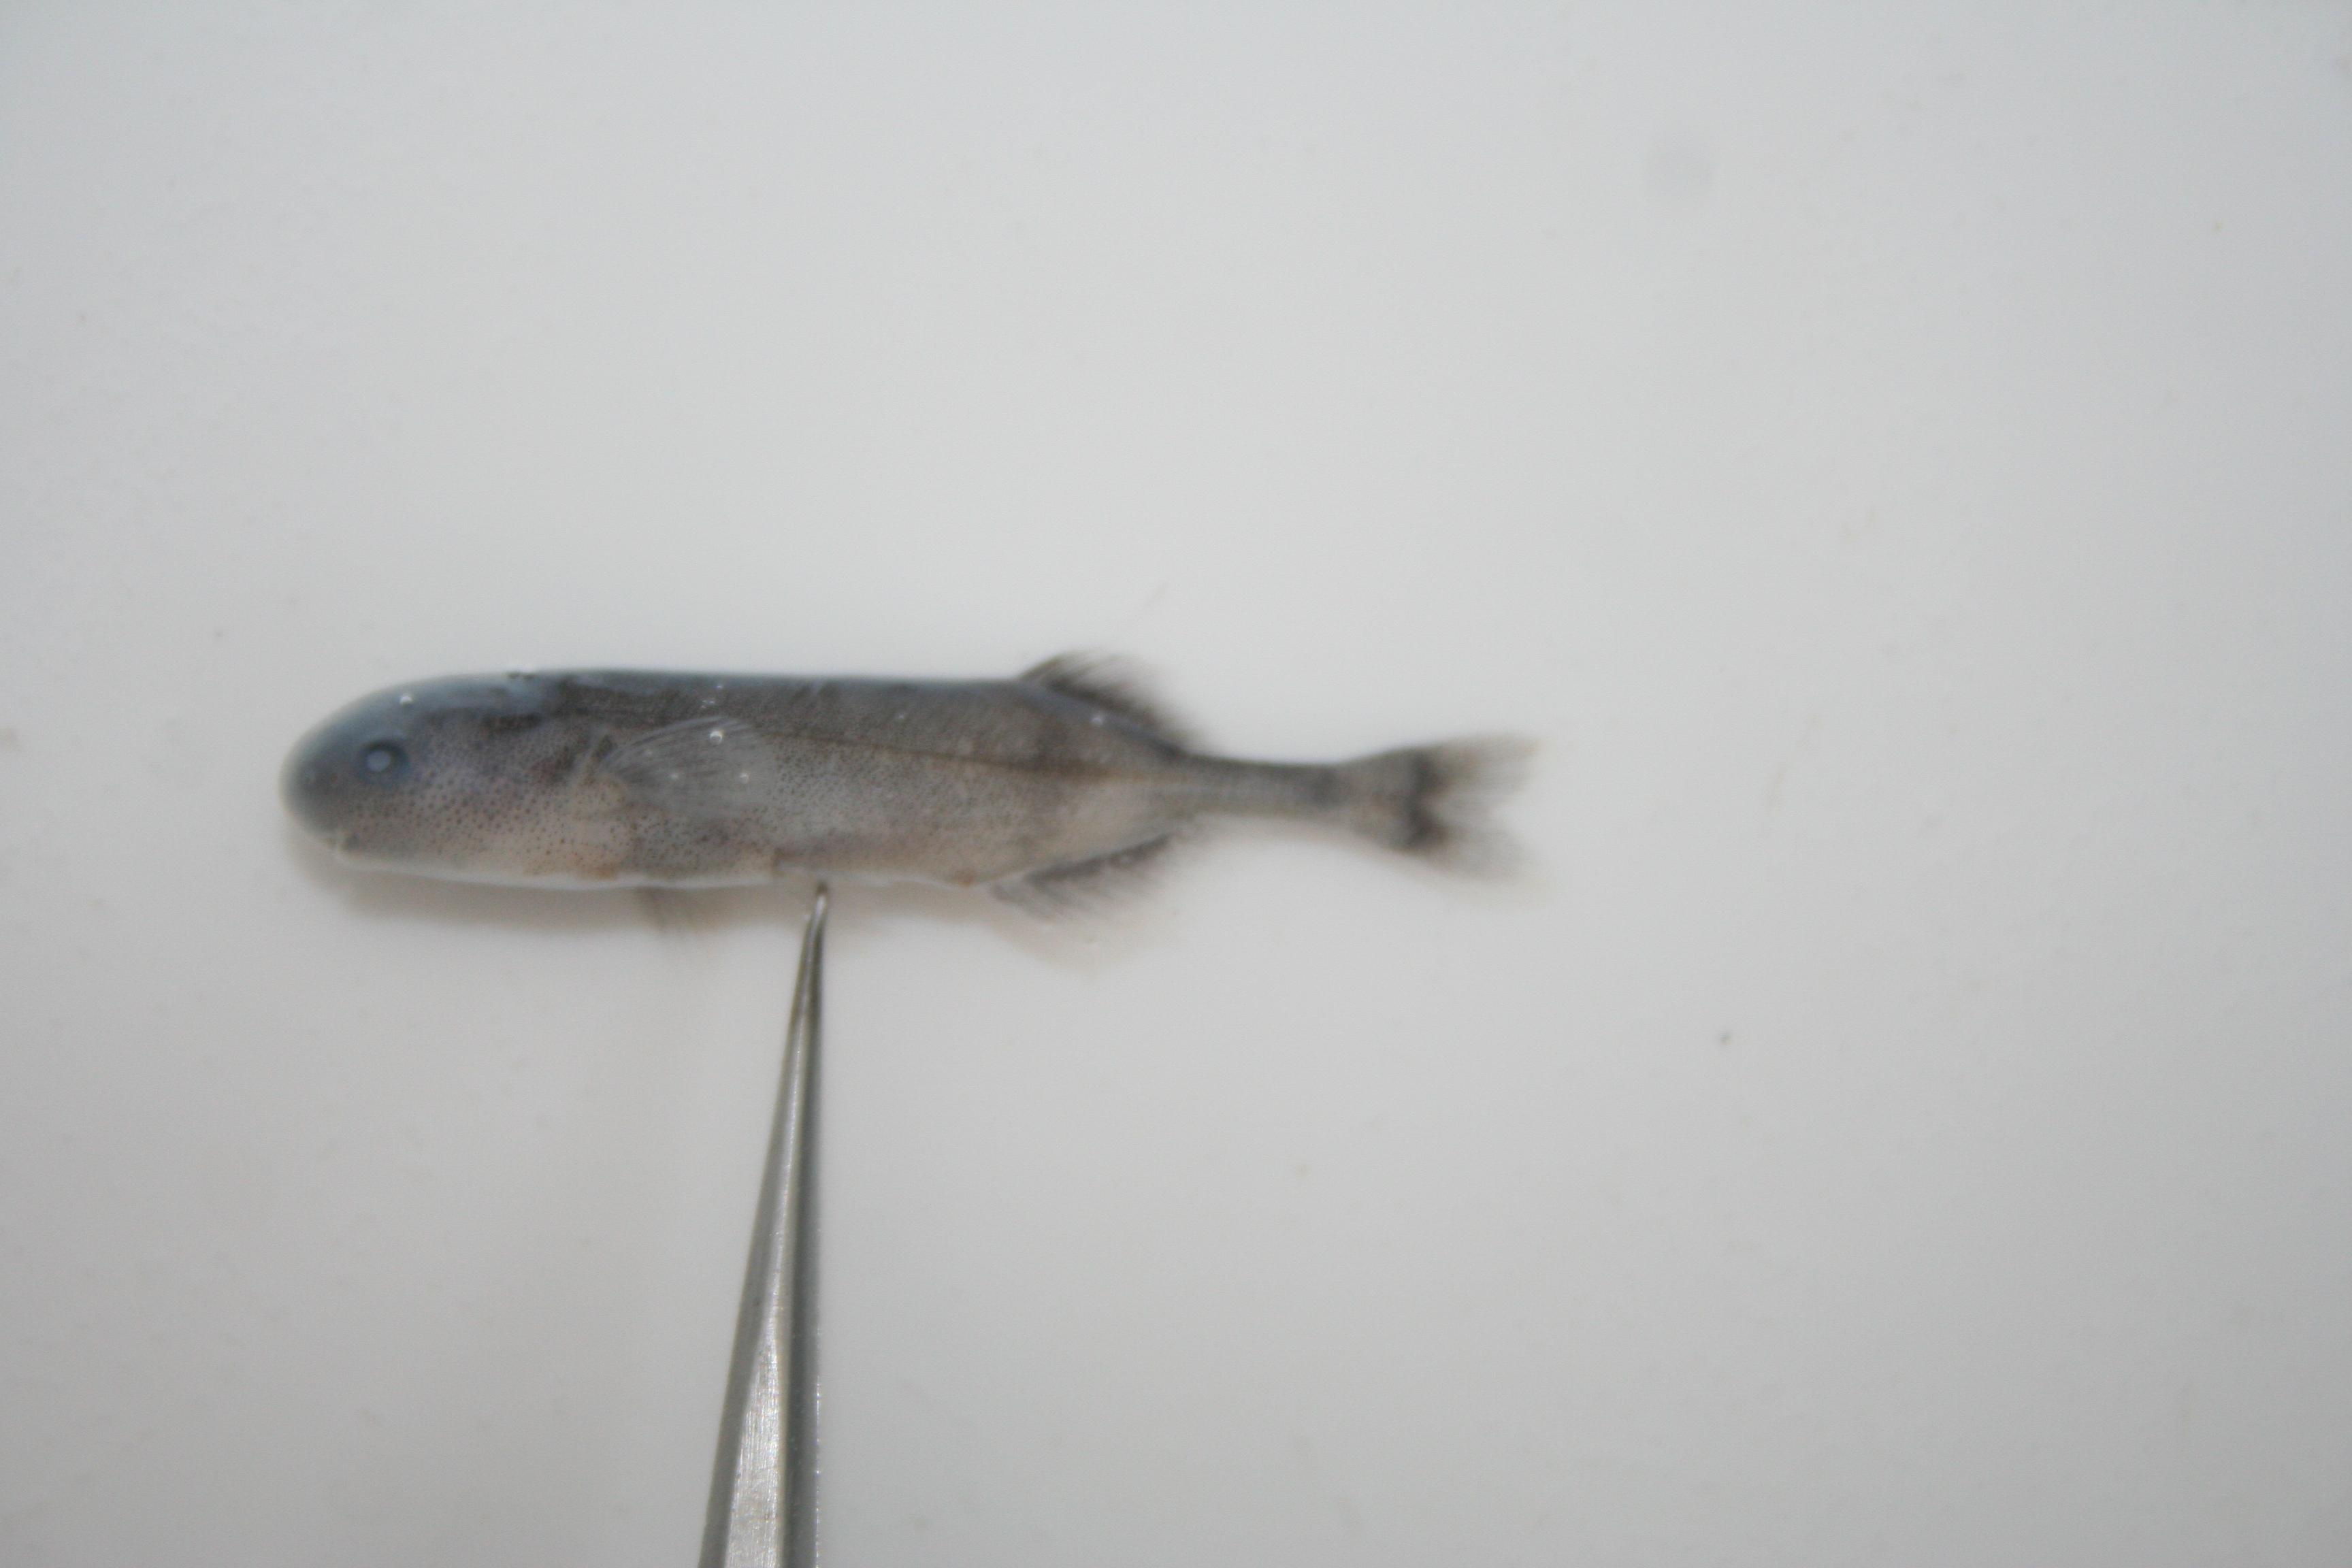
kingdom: Animalia
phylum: Chordata
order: Osteoglossiformes
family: Mormyridae
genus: Hippopotamyrus
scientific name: Hippopotamyrus
